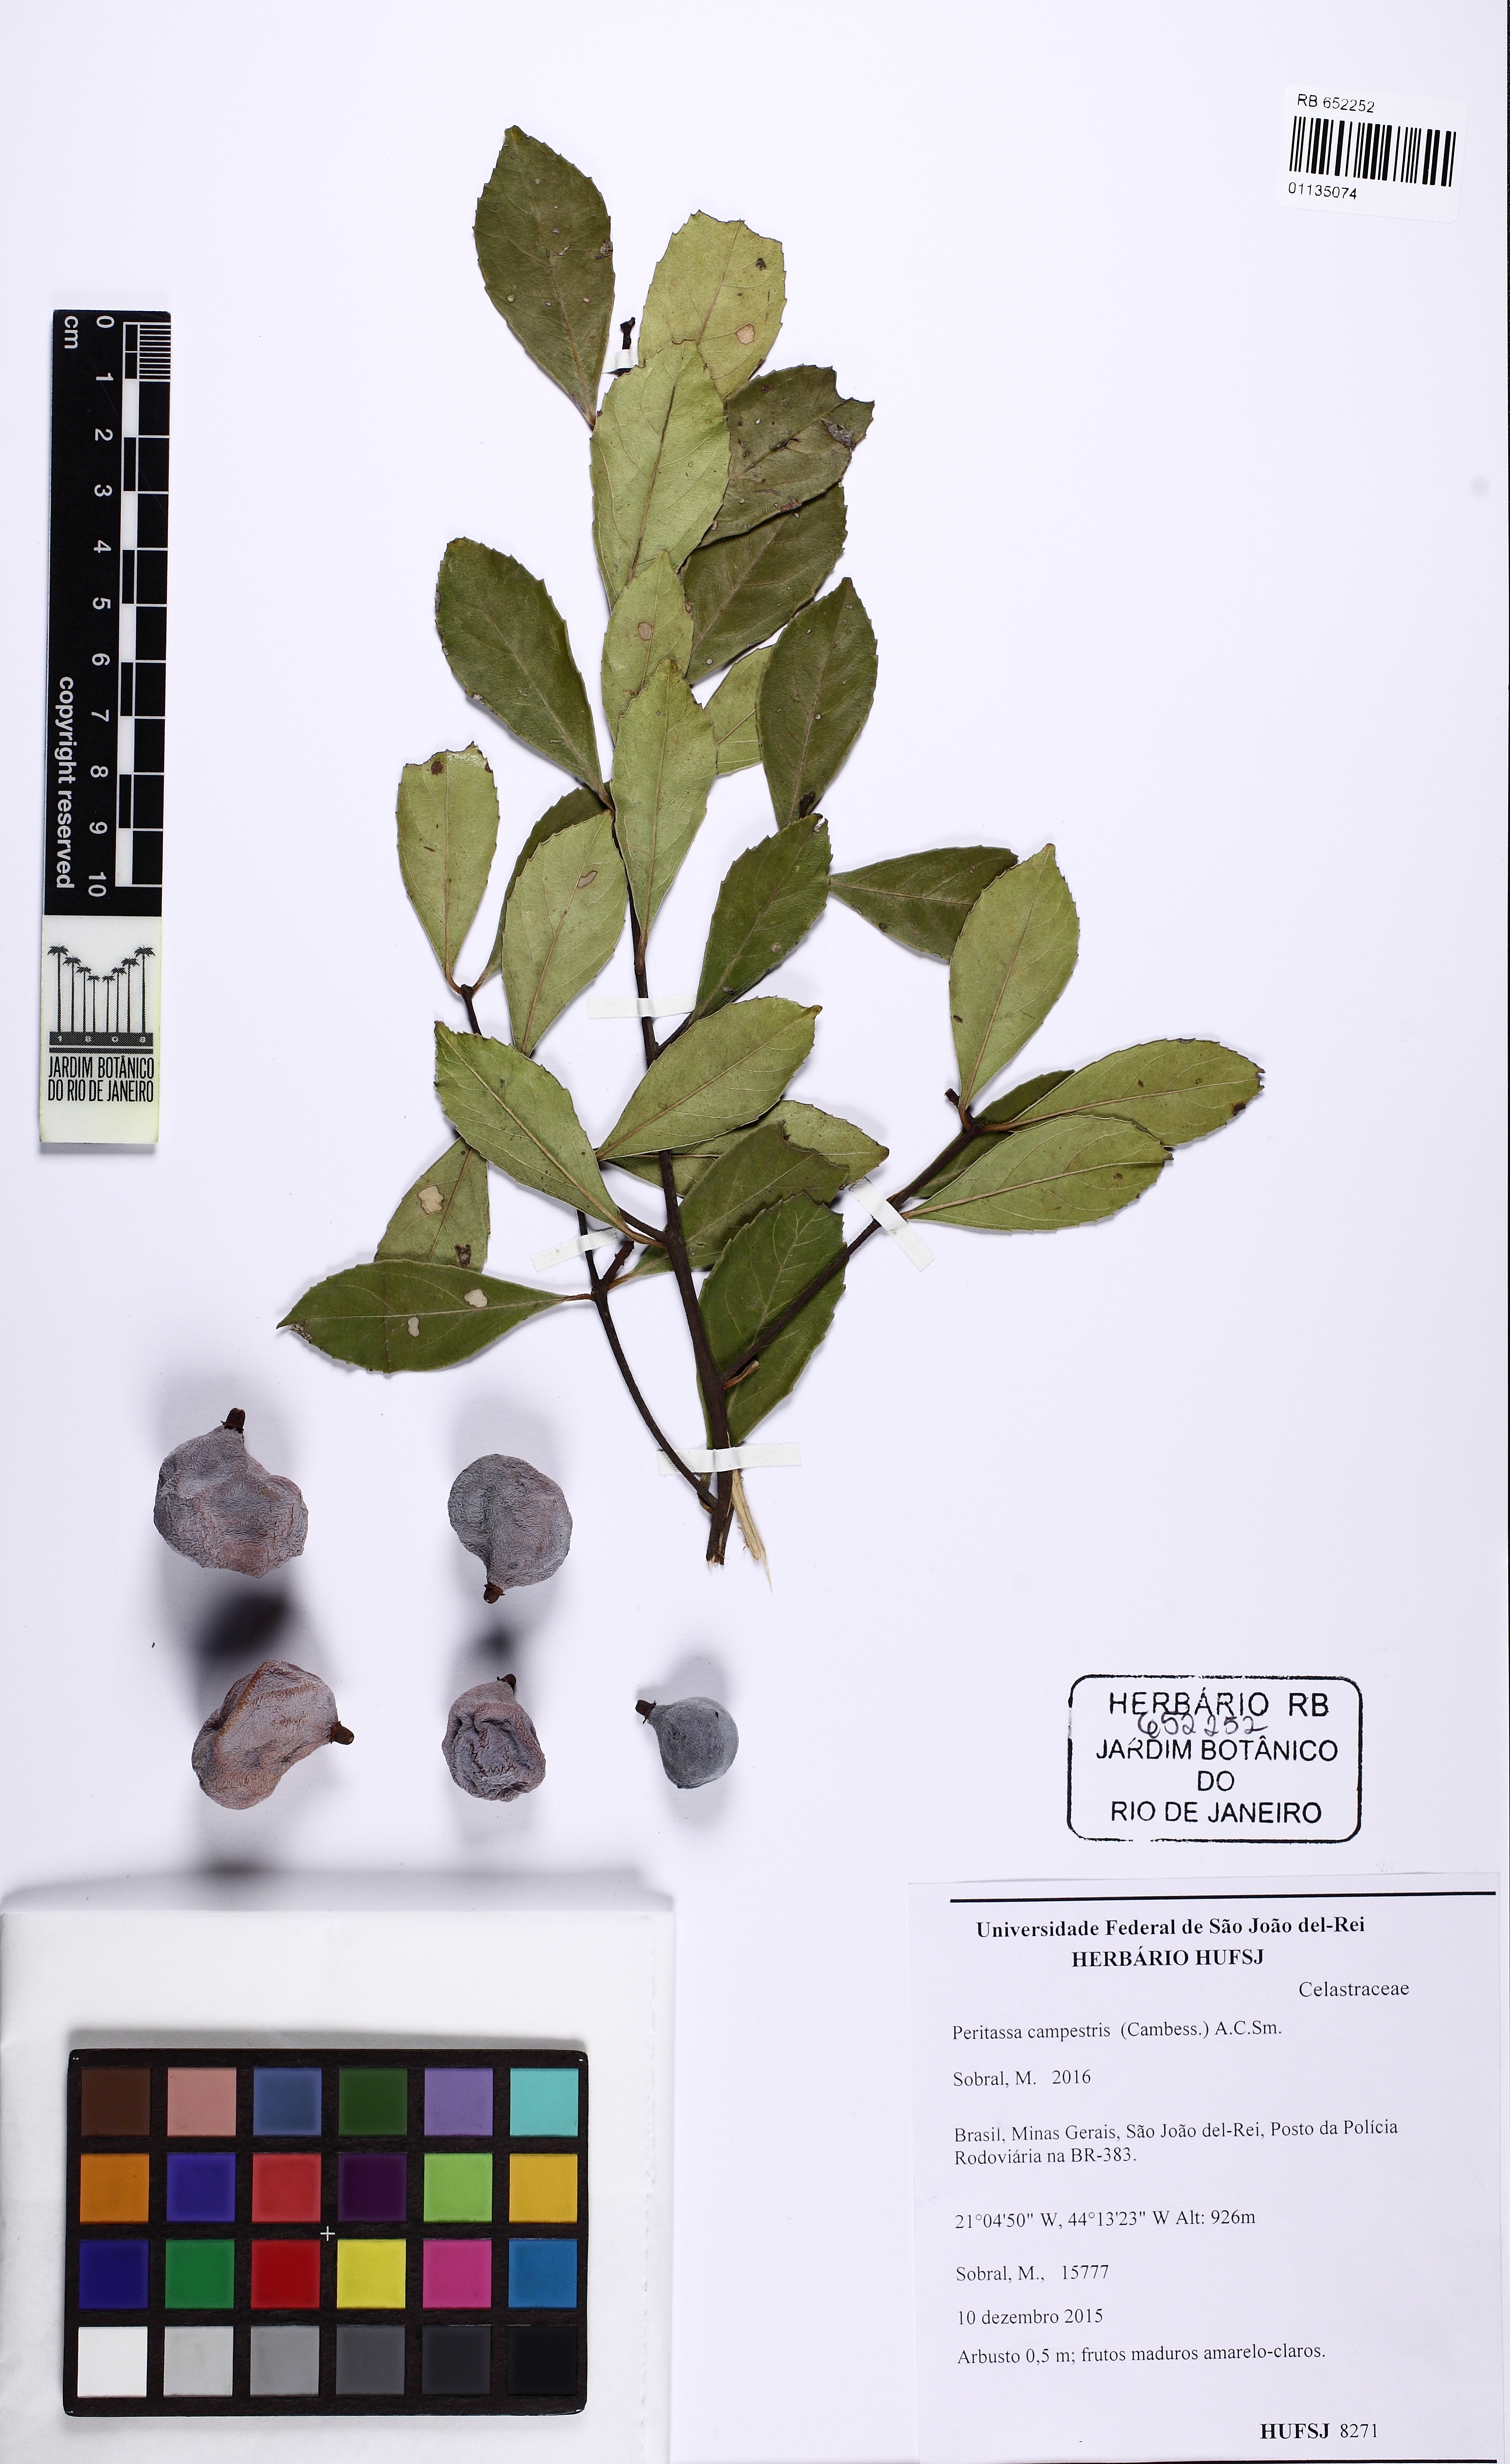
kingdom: Plantae
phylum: Tracheophyta
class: Magnoliopsida
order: Celastrales
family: Celastraceae
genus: Peritassa
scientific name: Peritassa campestris
